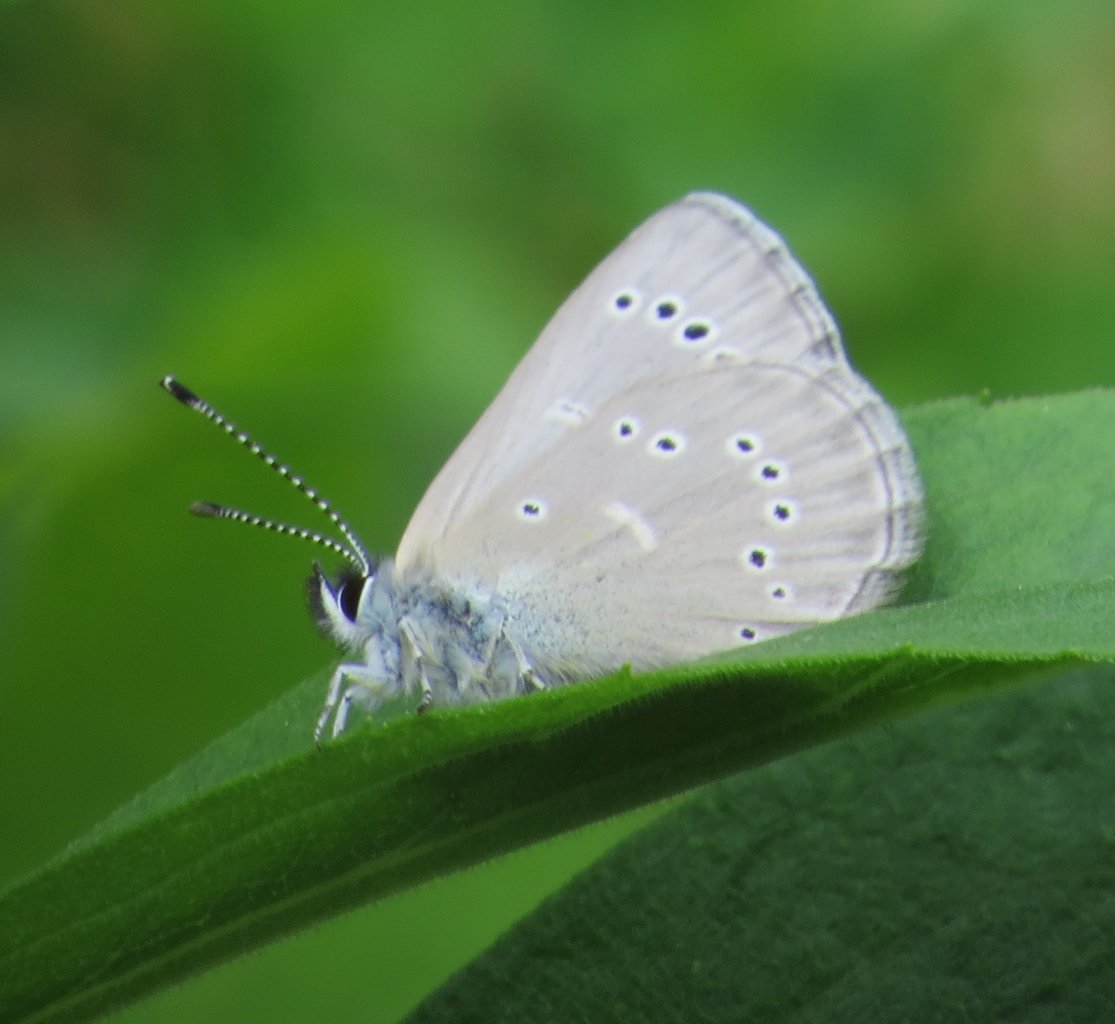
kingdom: Animalia
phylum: Arthropoda
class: Insecta
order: Lepidoptera
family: Lycaenidae
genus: Glaucopsyche
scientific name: Glaucopsyche lygdamus
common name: Silvery Blue
